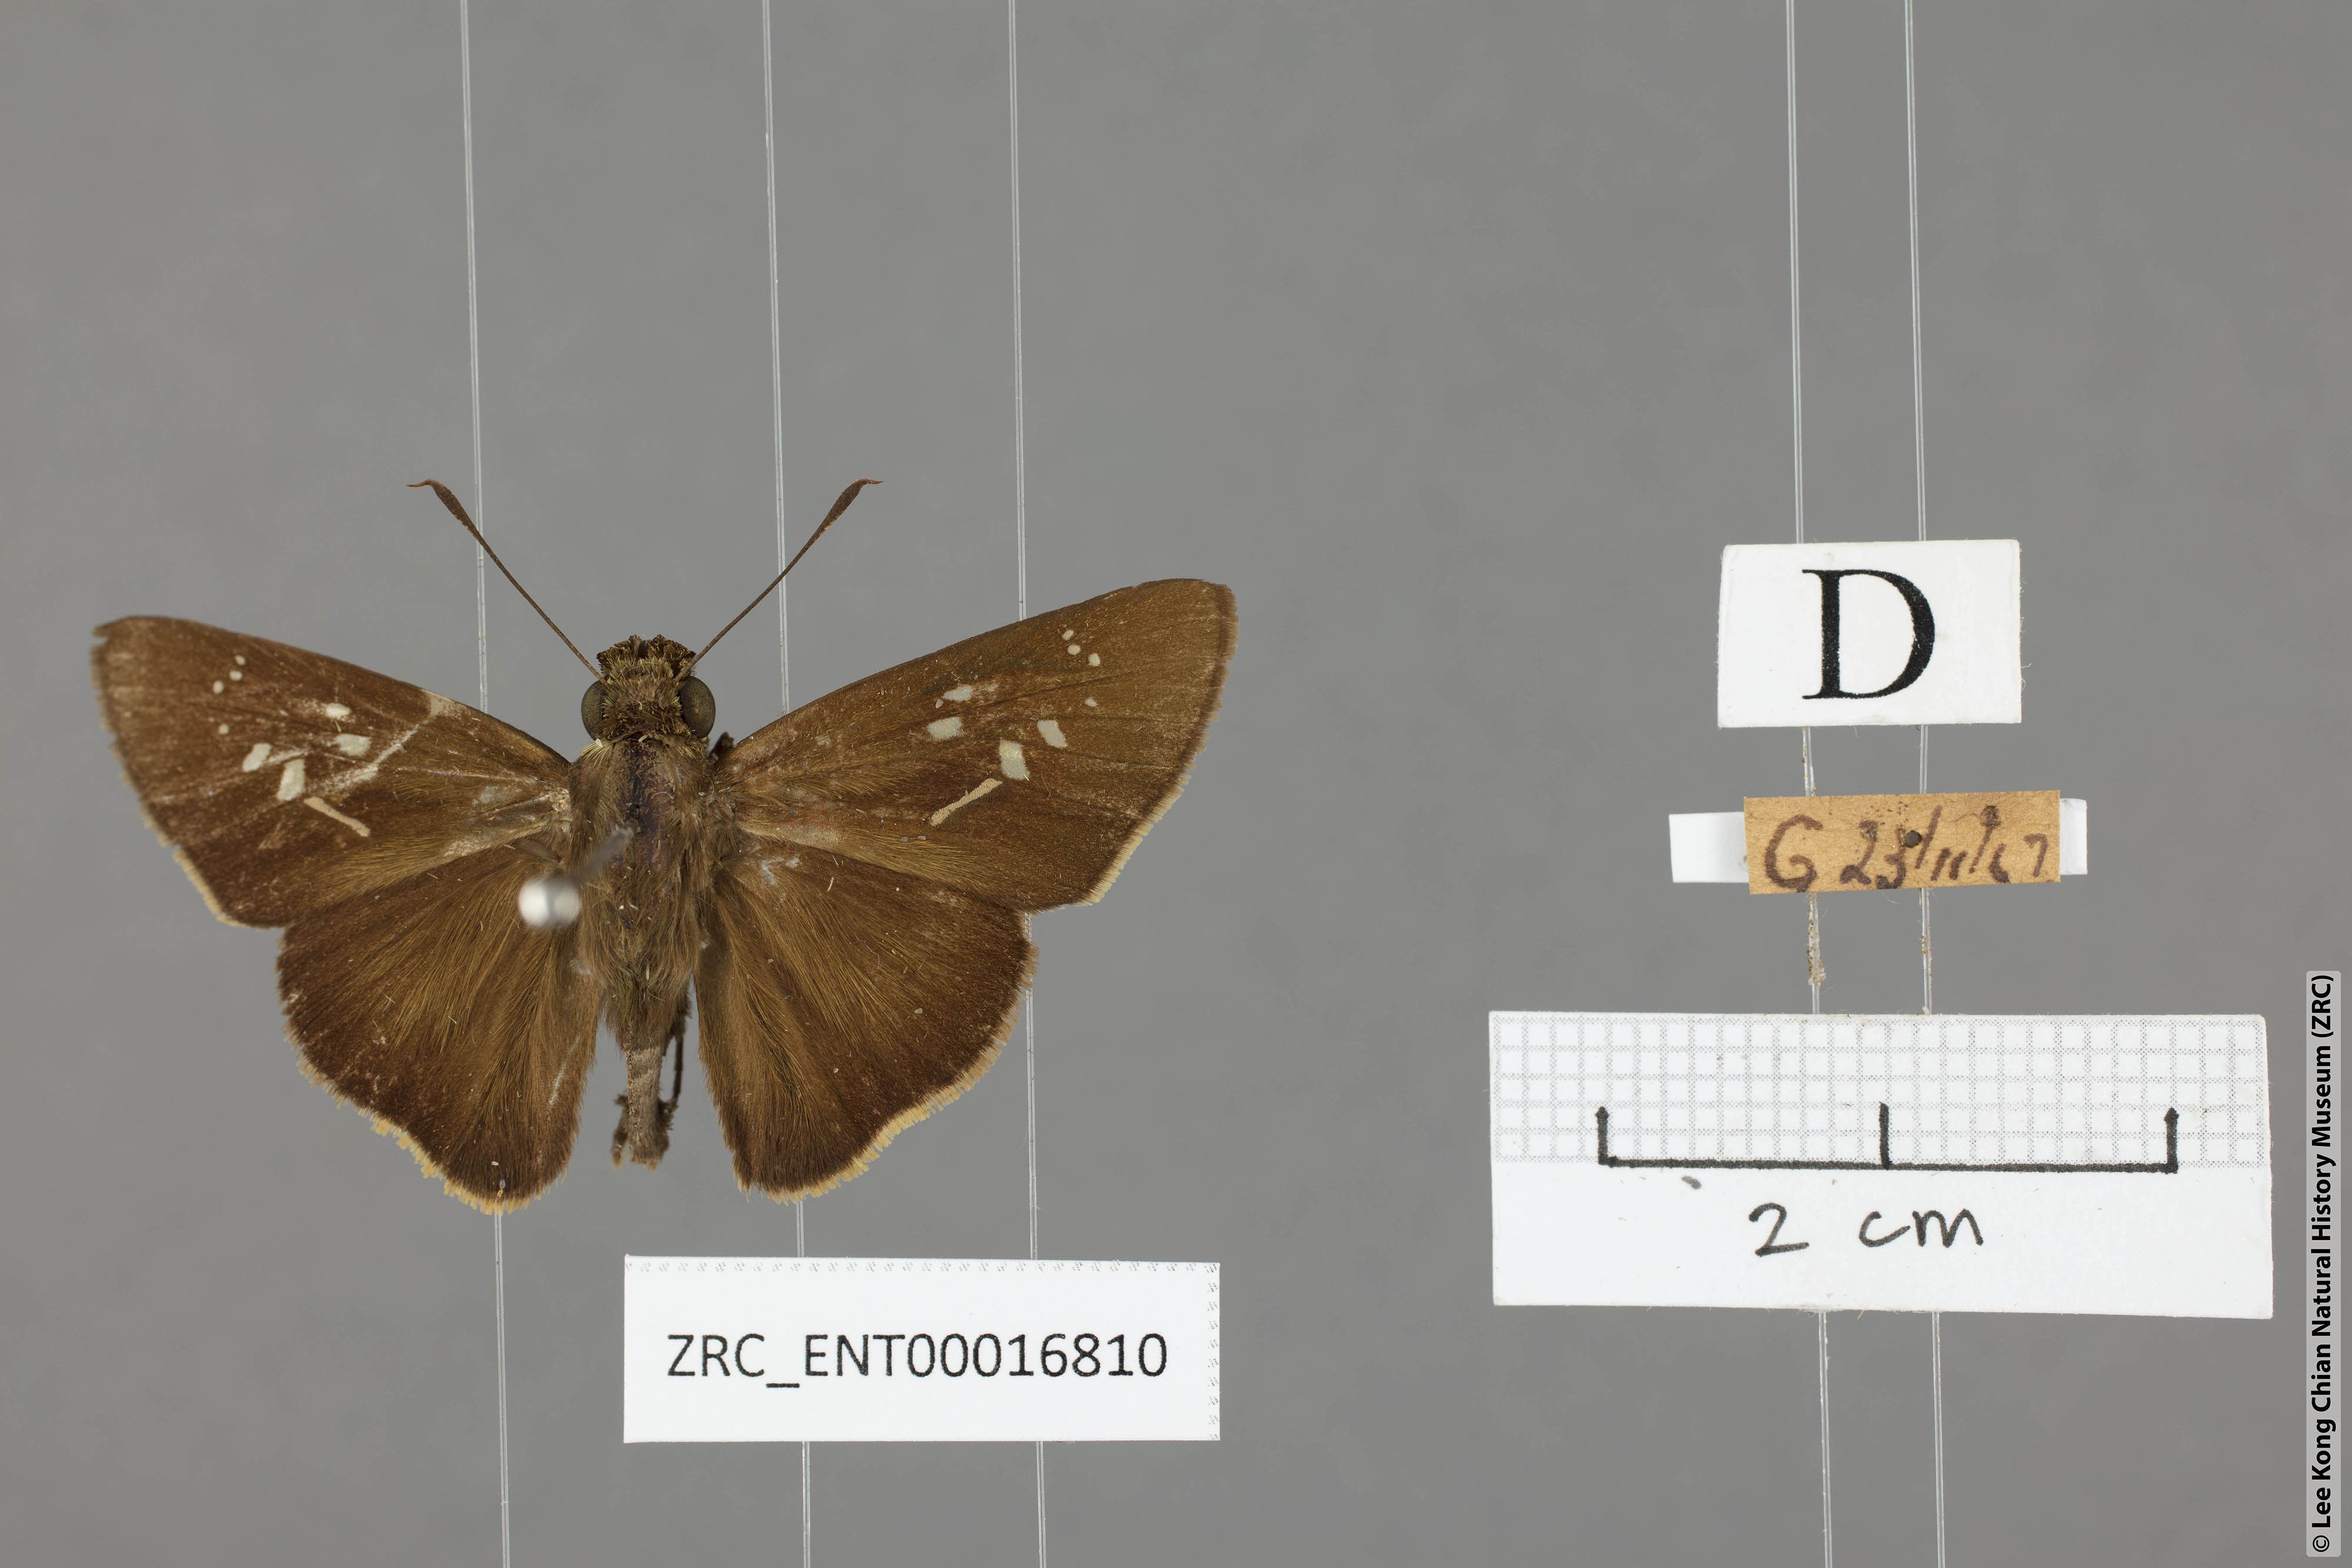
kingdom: Animalia
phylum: Arthropoda
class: Insecta
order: Lepidoptera
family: Hesperiidae
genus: Caltoris
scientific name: Caltoris brunnea
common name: Dark branded swift
